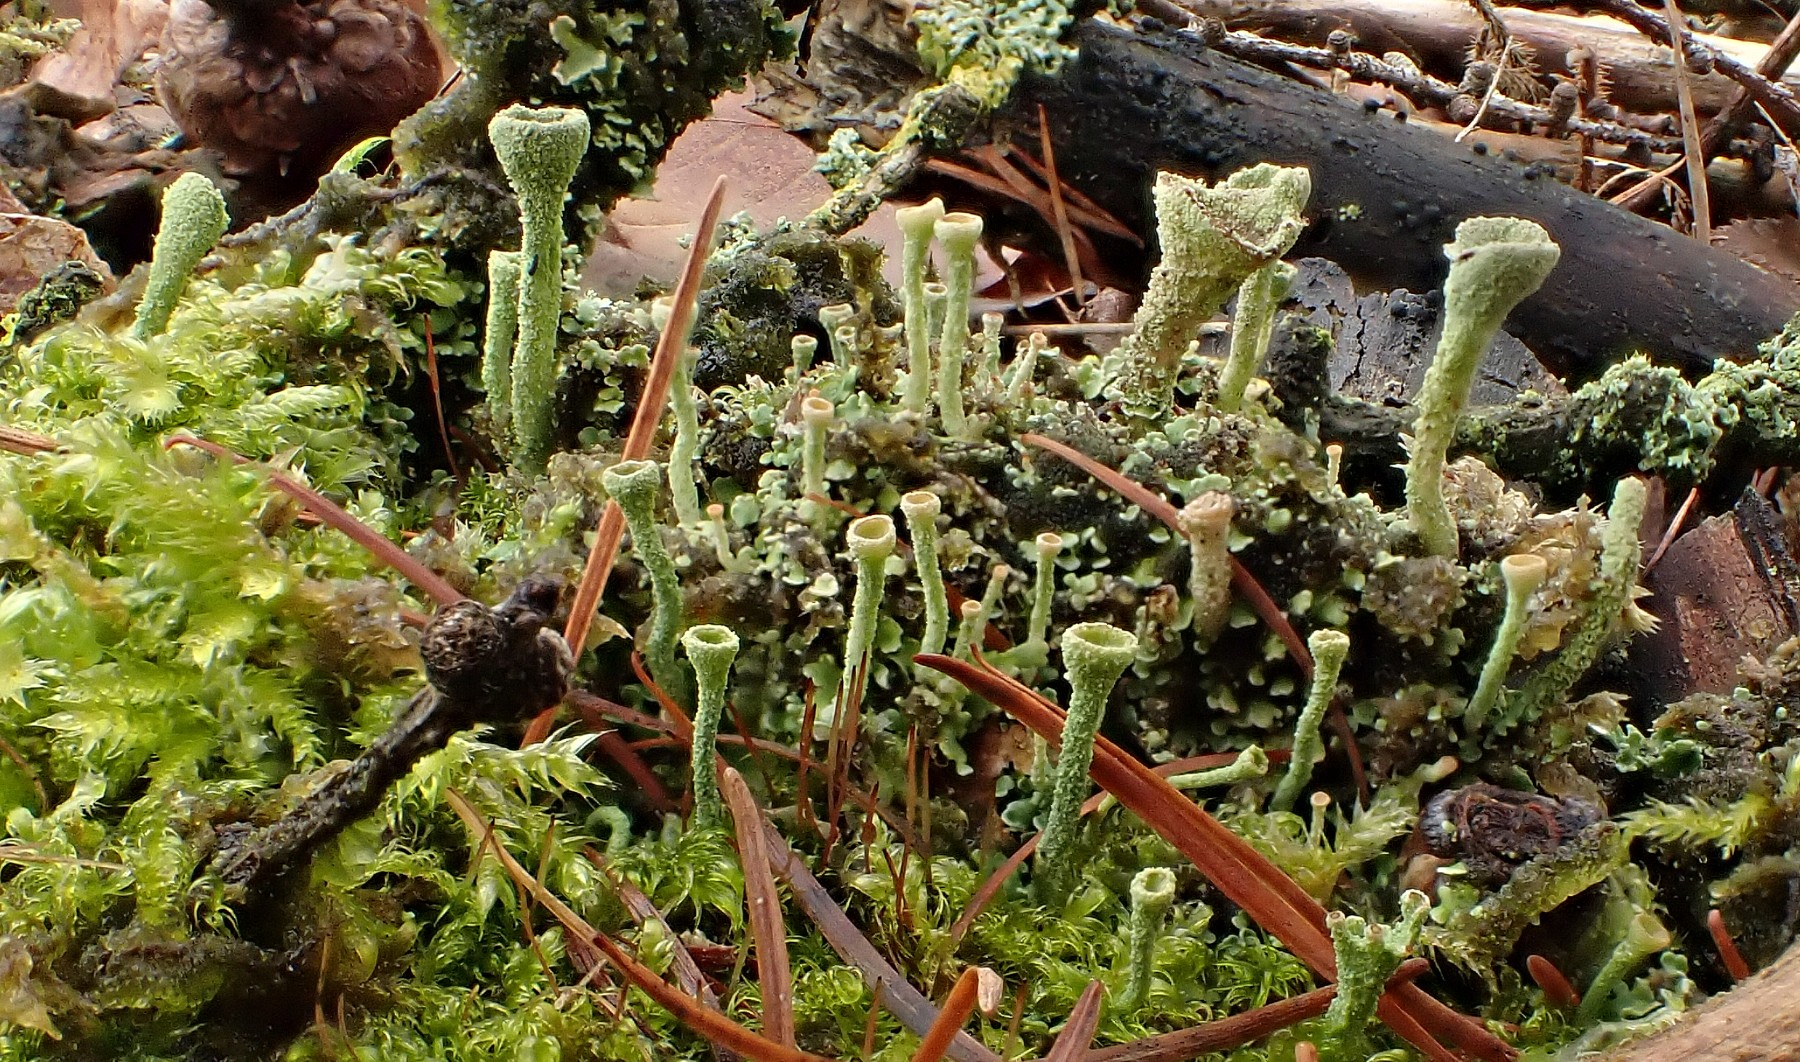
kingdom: Fungi
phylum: Ascomycota
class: Lecanoromycetes
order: Lecanorales
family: Cladoniaceae
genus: Cladonia
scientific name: Cladonia
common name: brungrøn bægerlav
